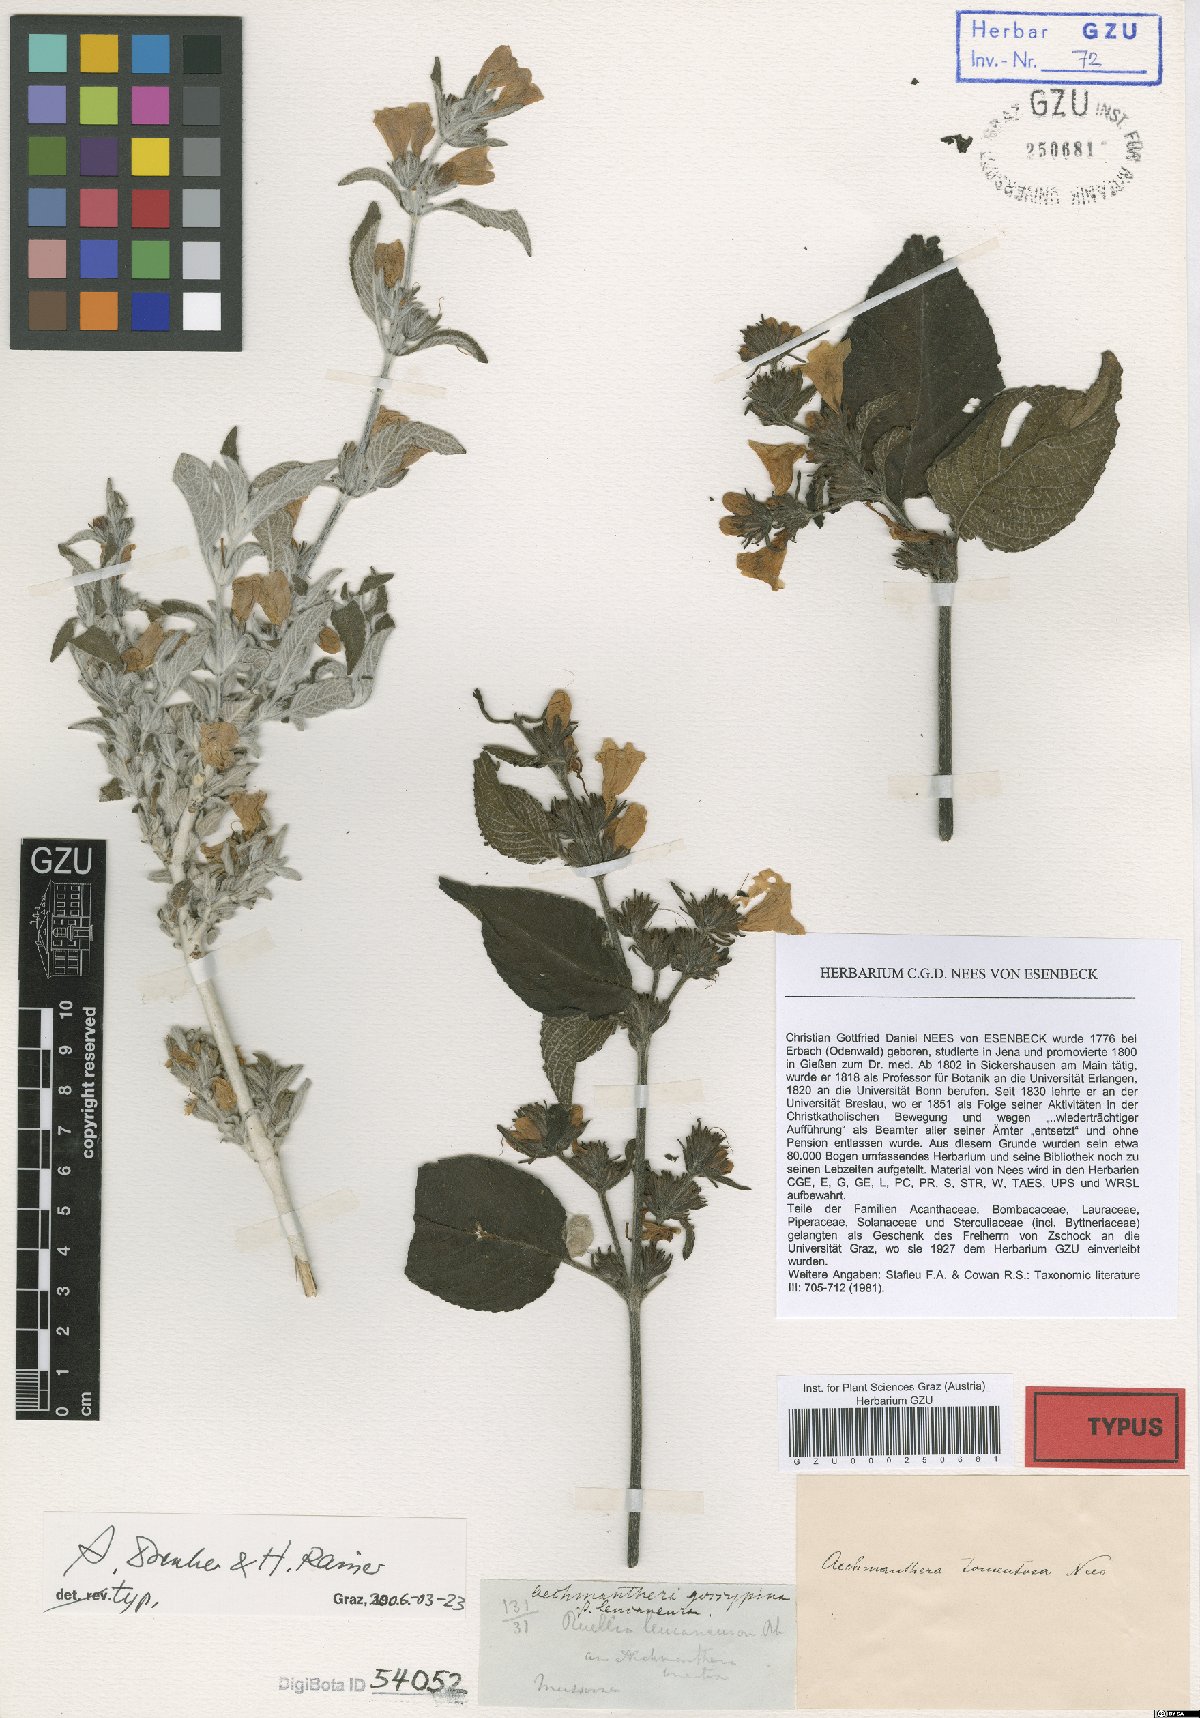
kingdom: Plantae
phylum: Tracheophyta
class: Magnoliopsida
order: Lamiales
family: Acanthaceae
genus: Strobilanthes
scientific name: Strobilanthes tomentosa
